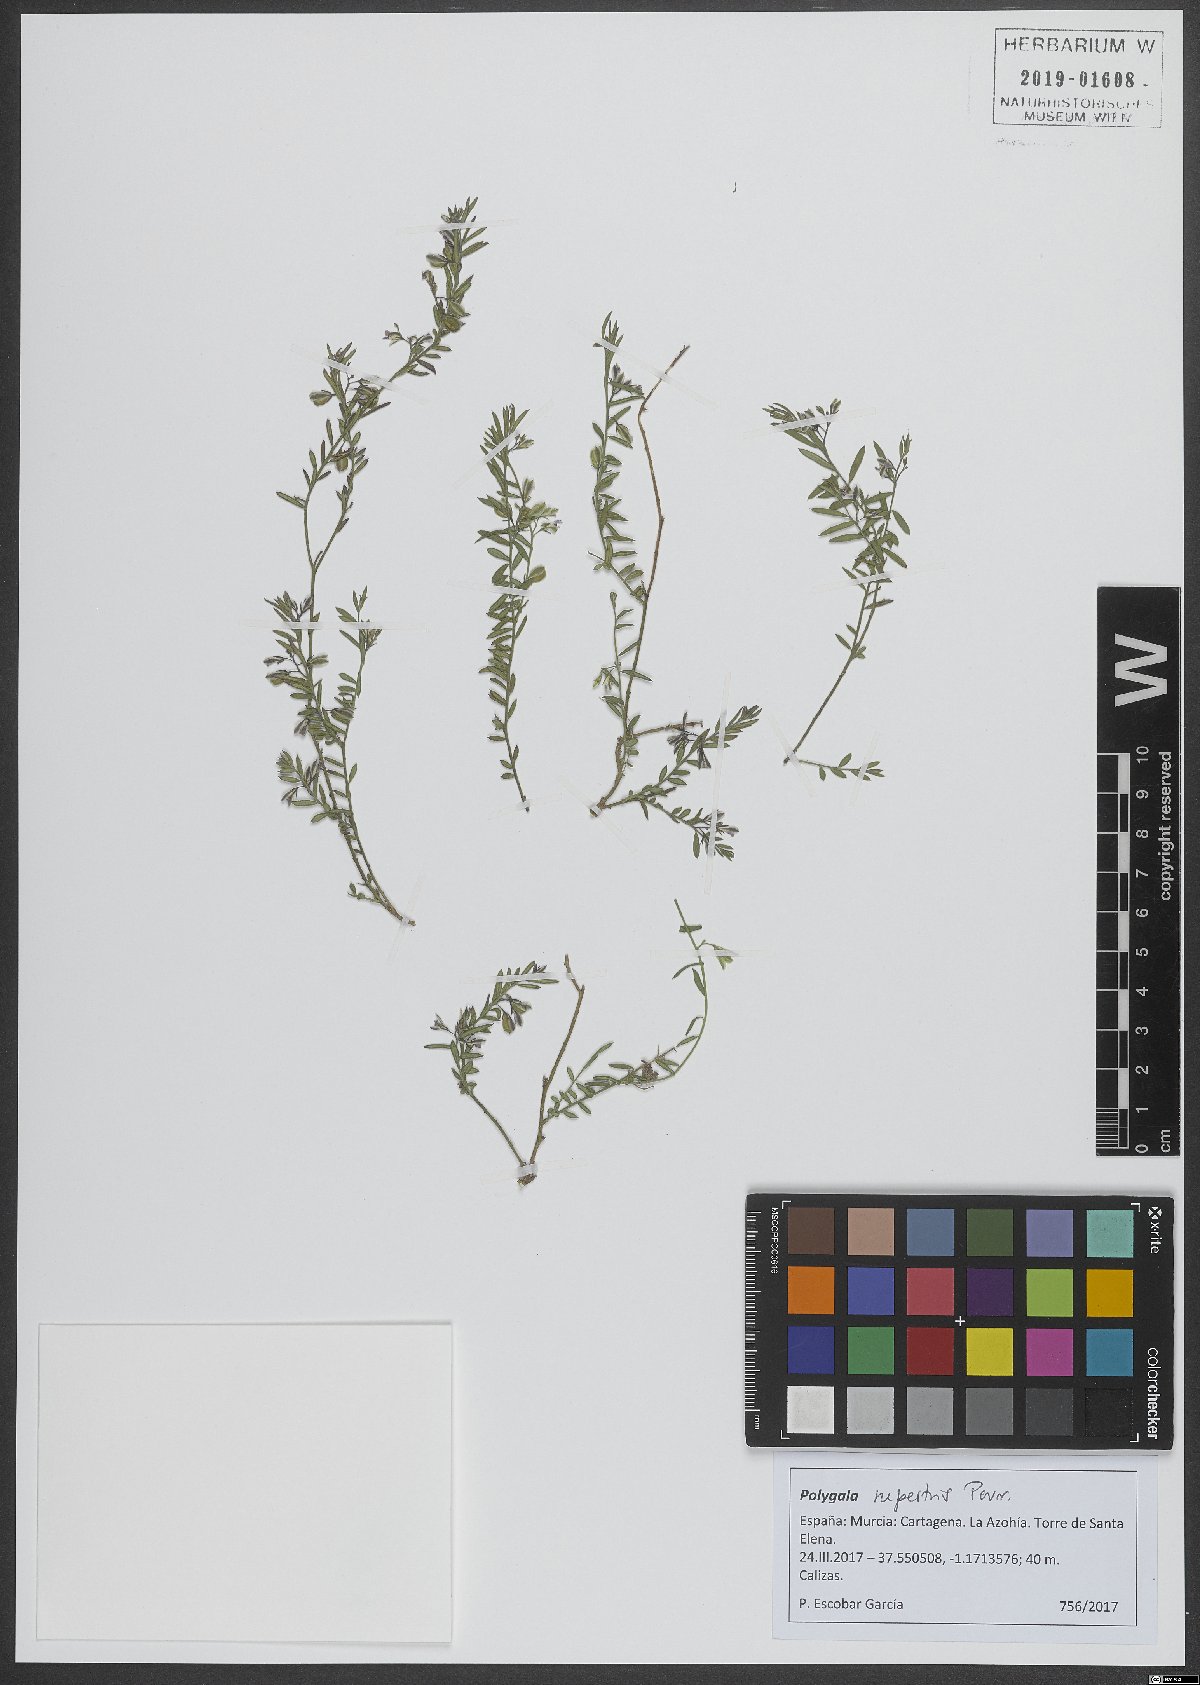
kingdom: Plantae
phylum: Tracheophyta
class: Magnoliopsida
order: Fabales
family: Polygalaceae
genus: Polygala
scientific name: Polygala rupestris
